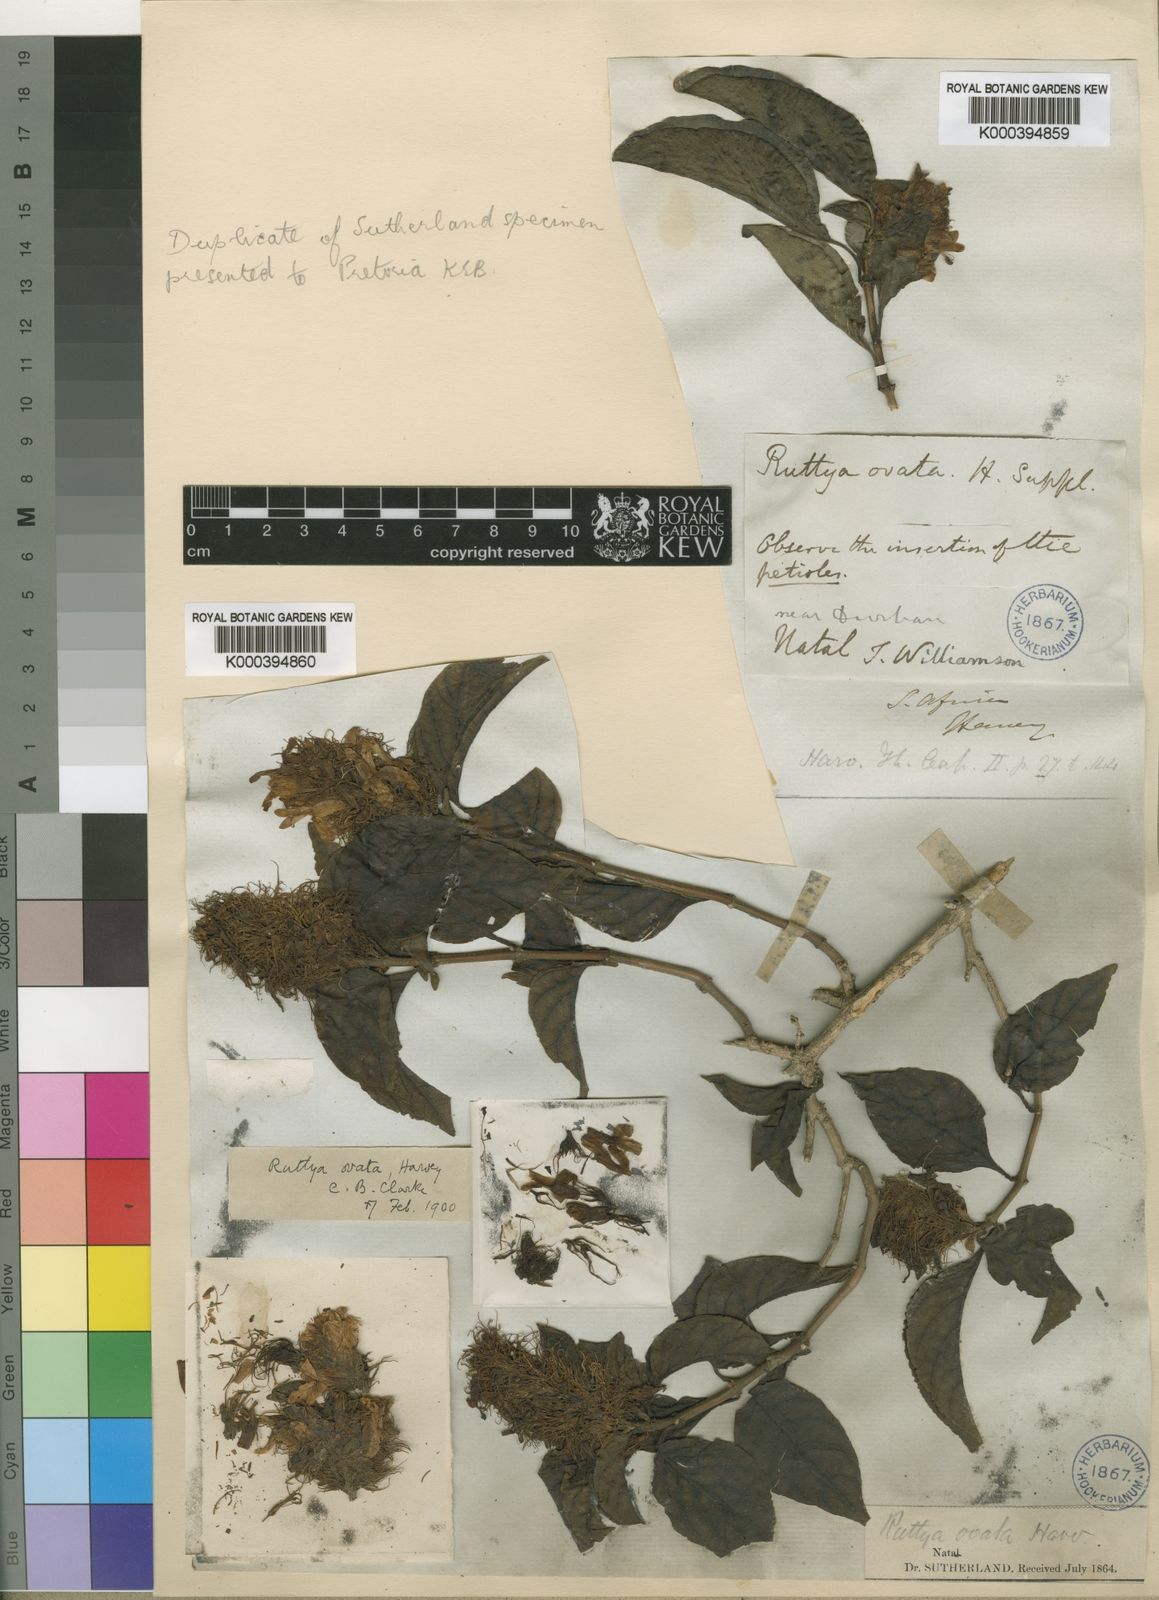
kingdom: Plantae
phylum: Tracheophyta
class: Magnoliopsida
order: Lamiales
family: Acanthaceae
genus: Ruttya
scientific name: Ruttya ovata
